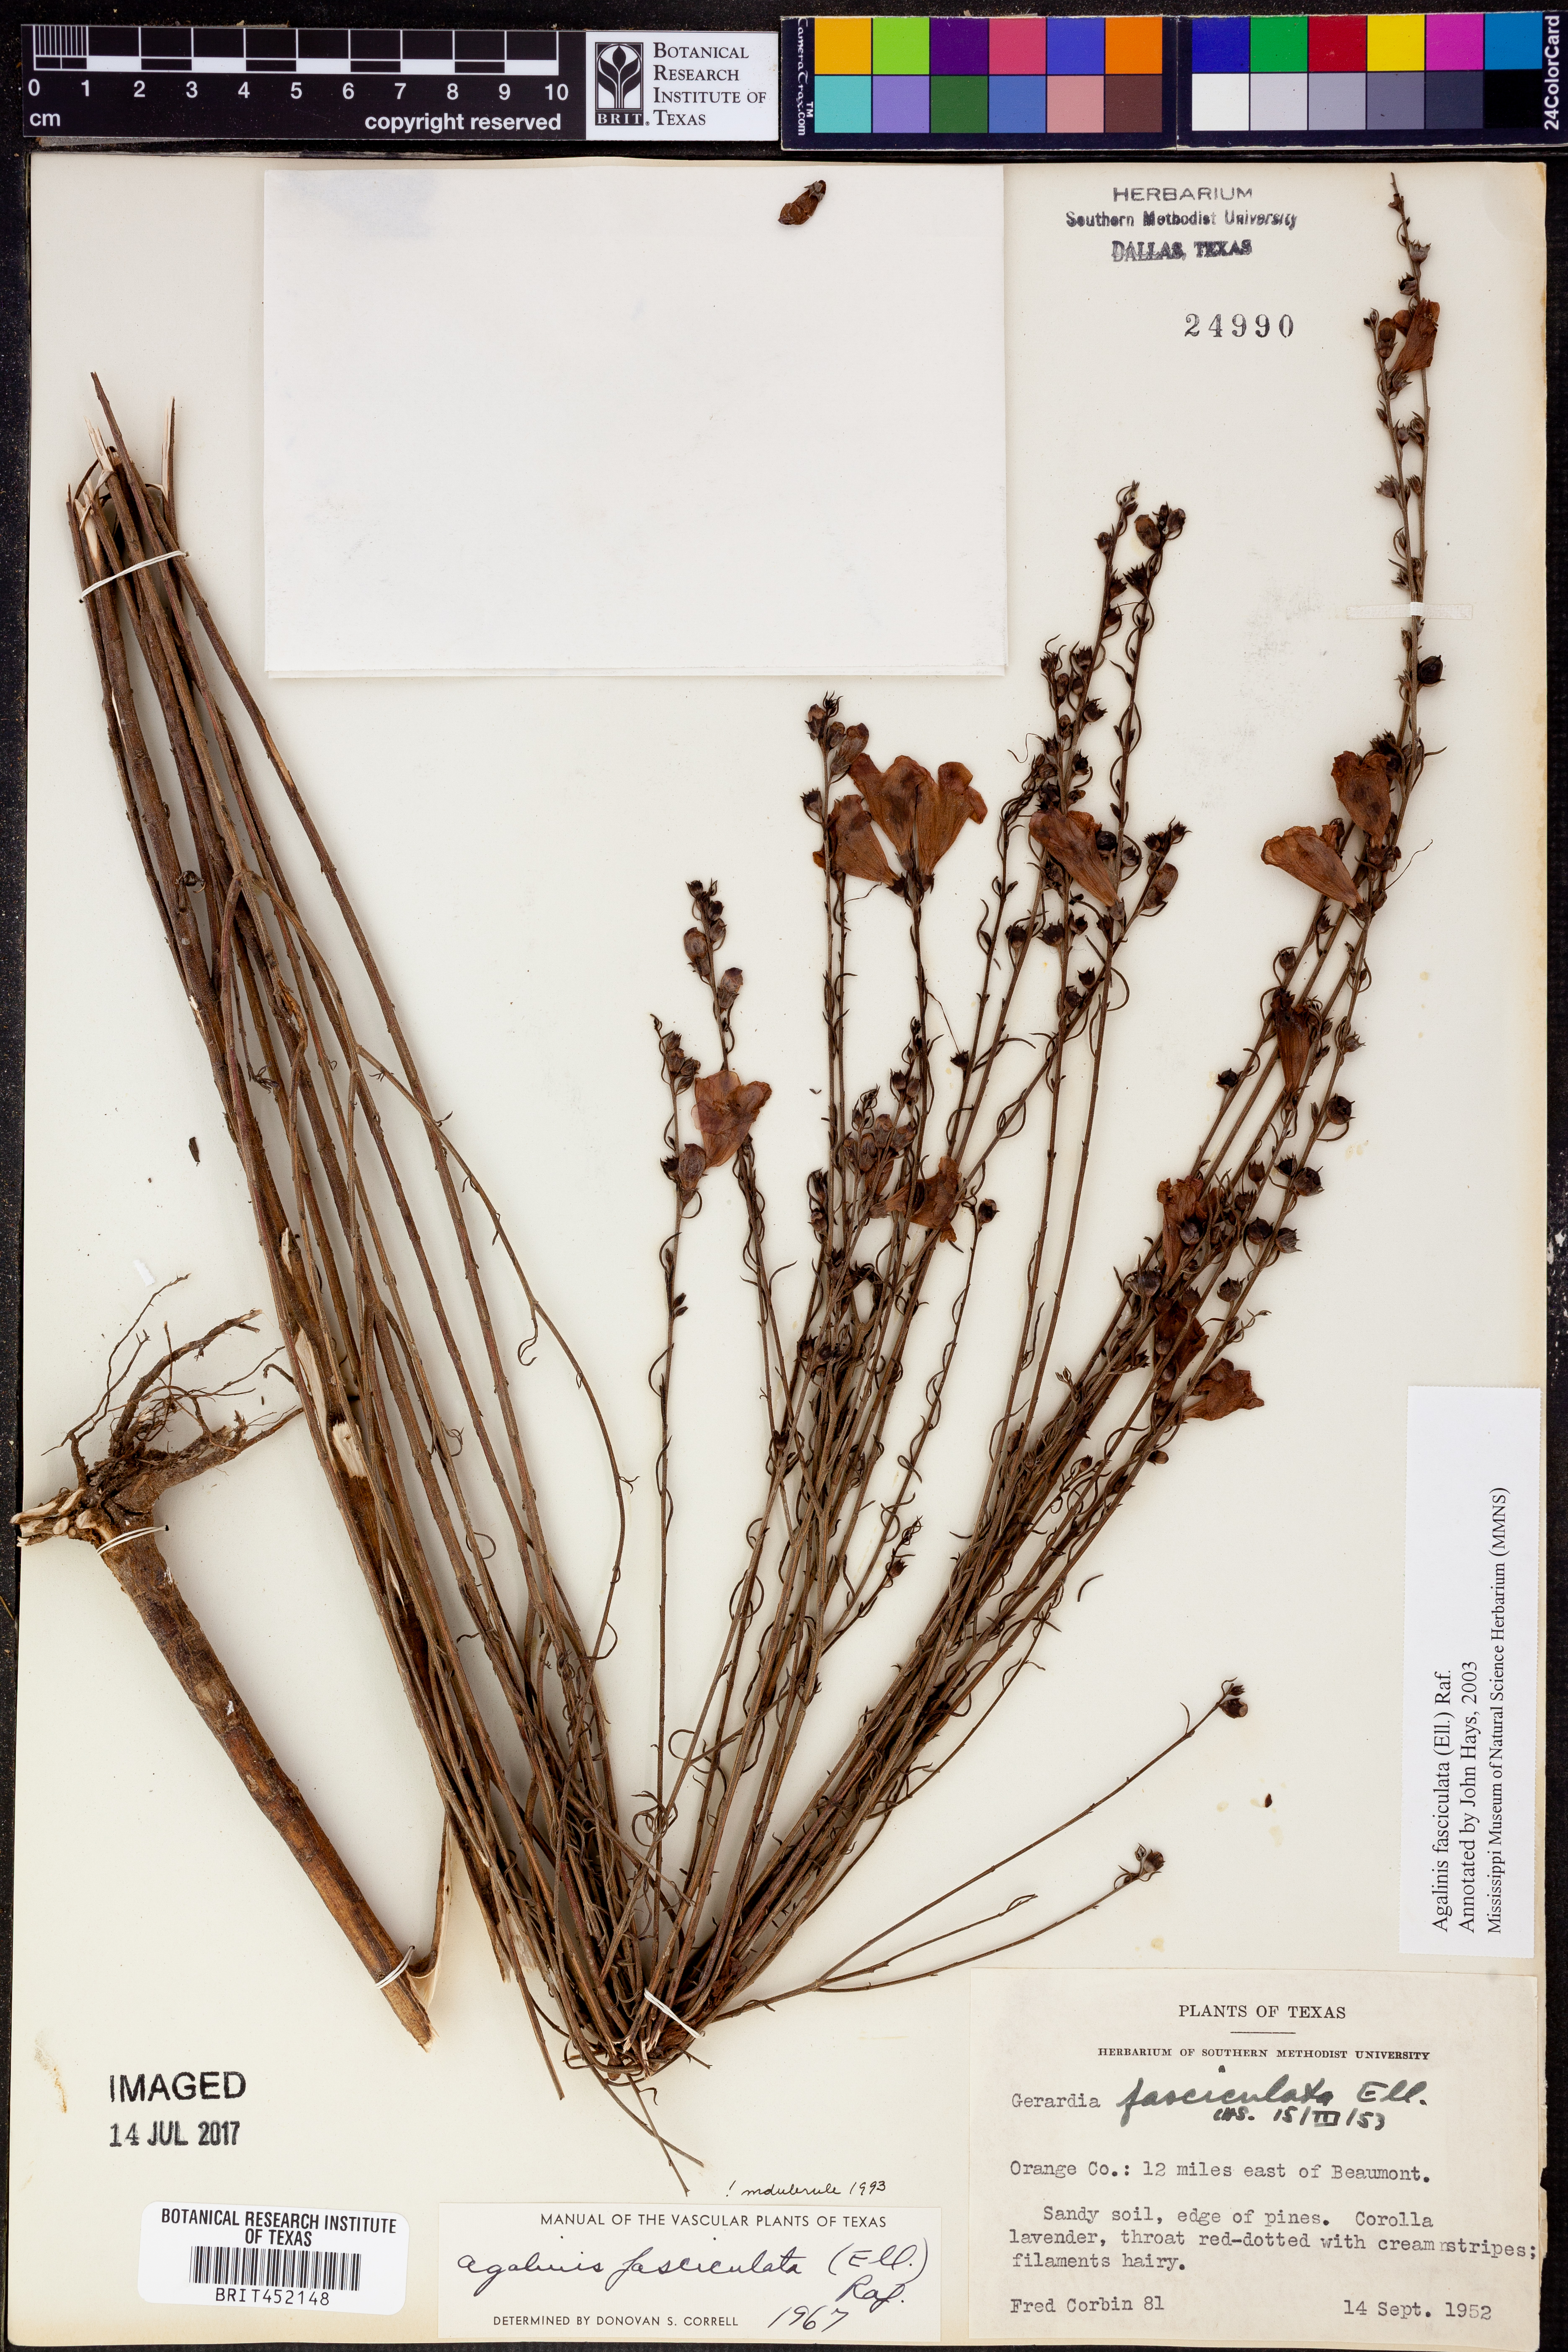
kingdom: Plantae
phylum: Tracheophyta
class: Magnoliopsida
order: Lamiales
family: Orobanchaceae
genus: Agalinis
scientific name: Agalinis fasciculata
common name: Beach false foxglove
